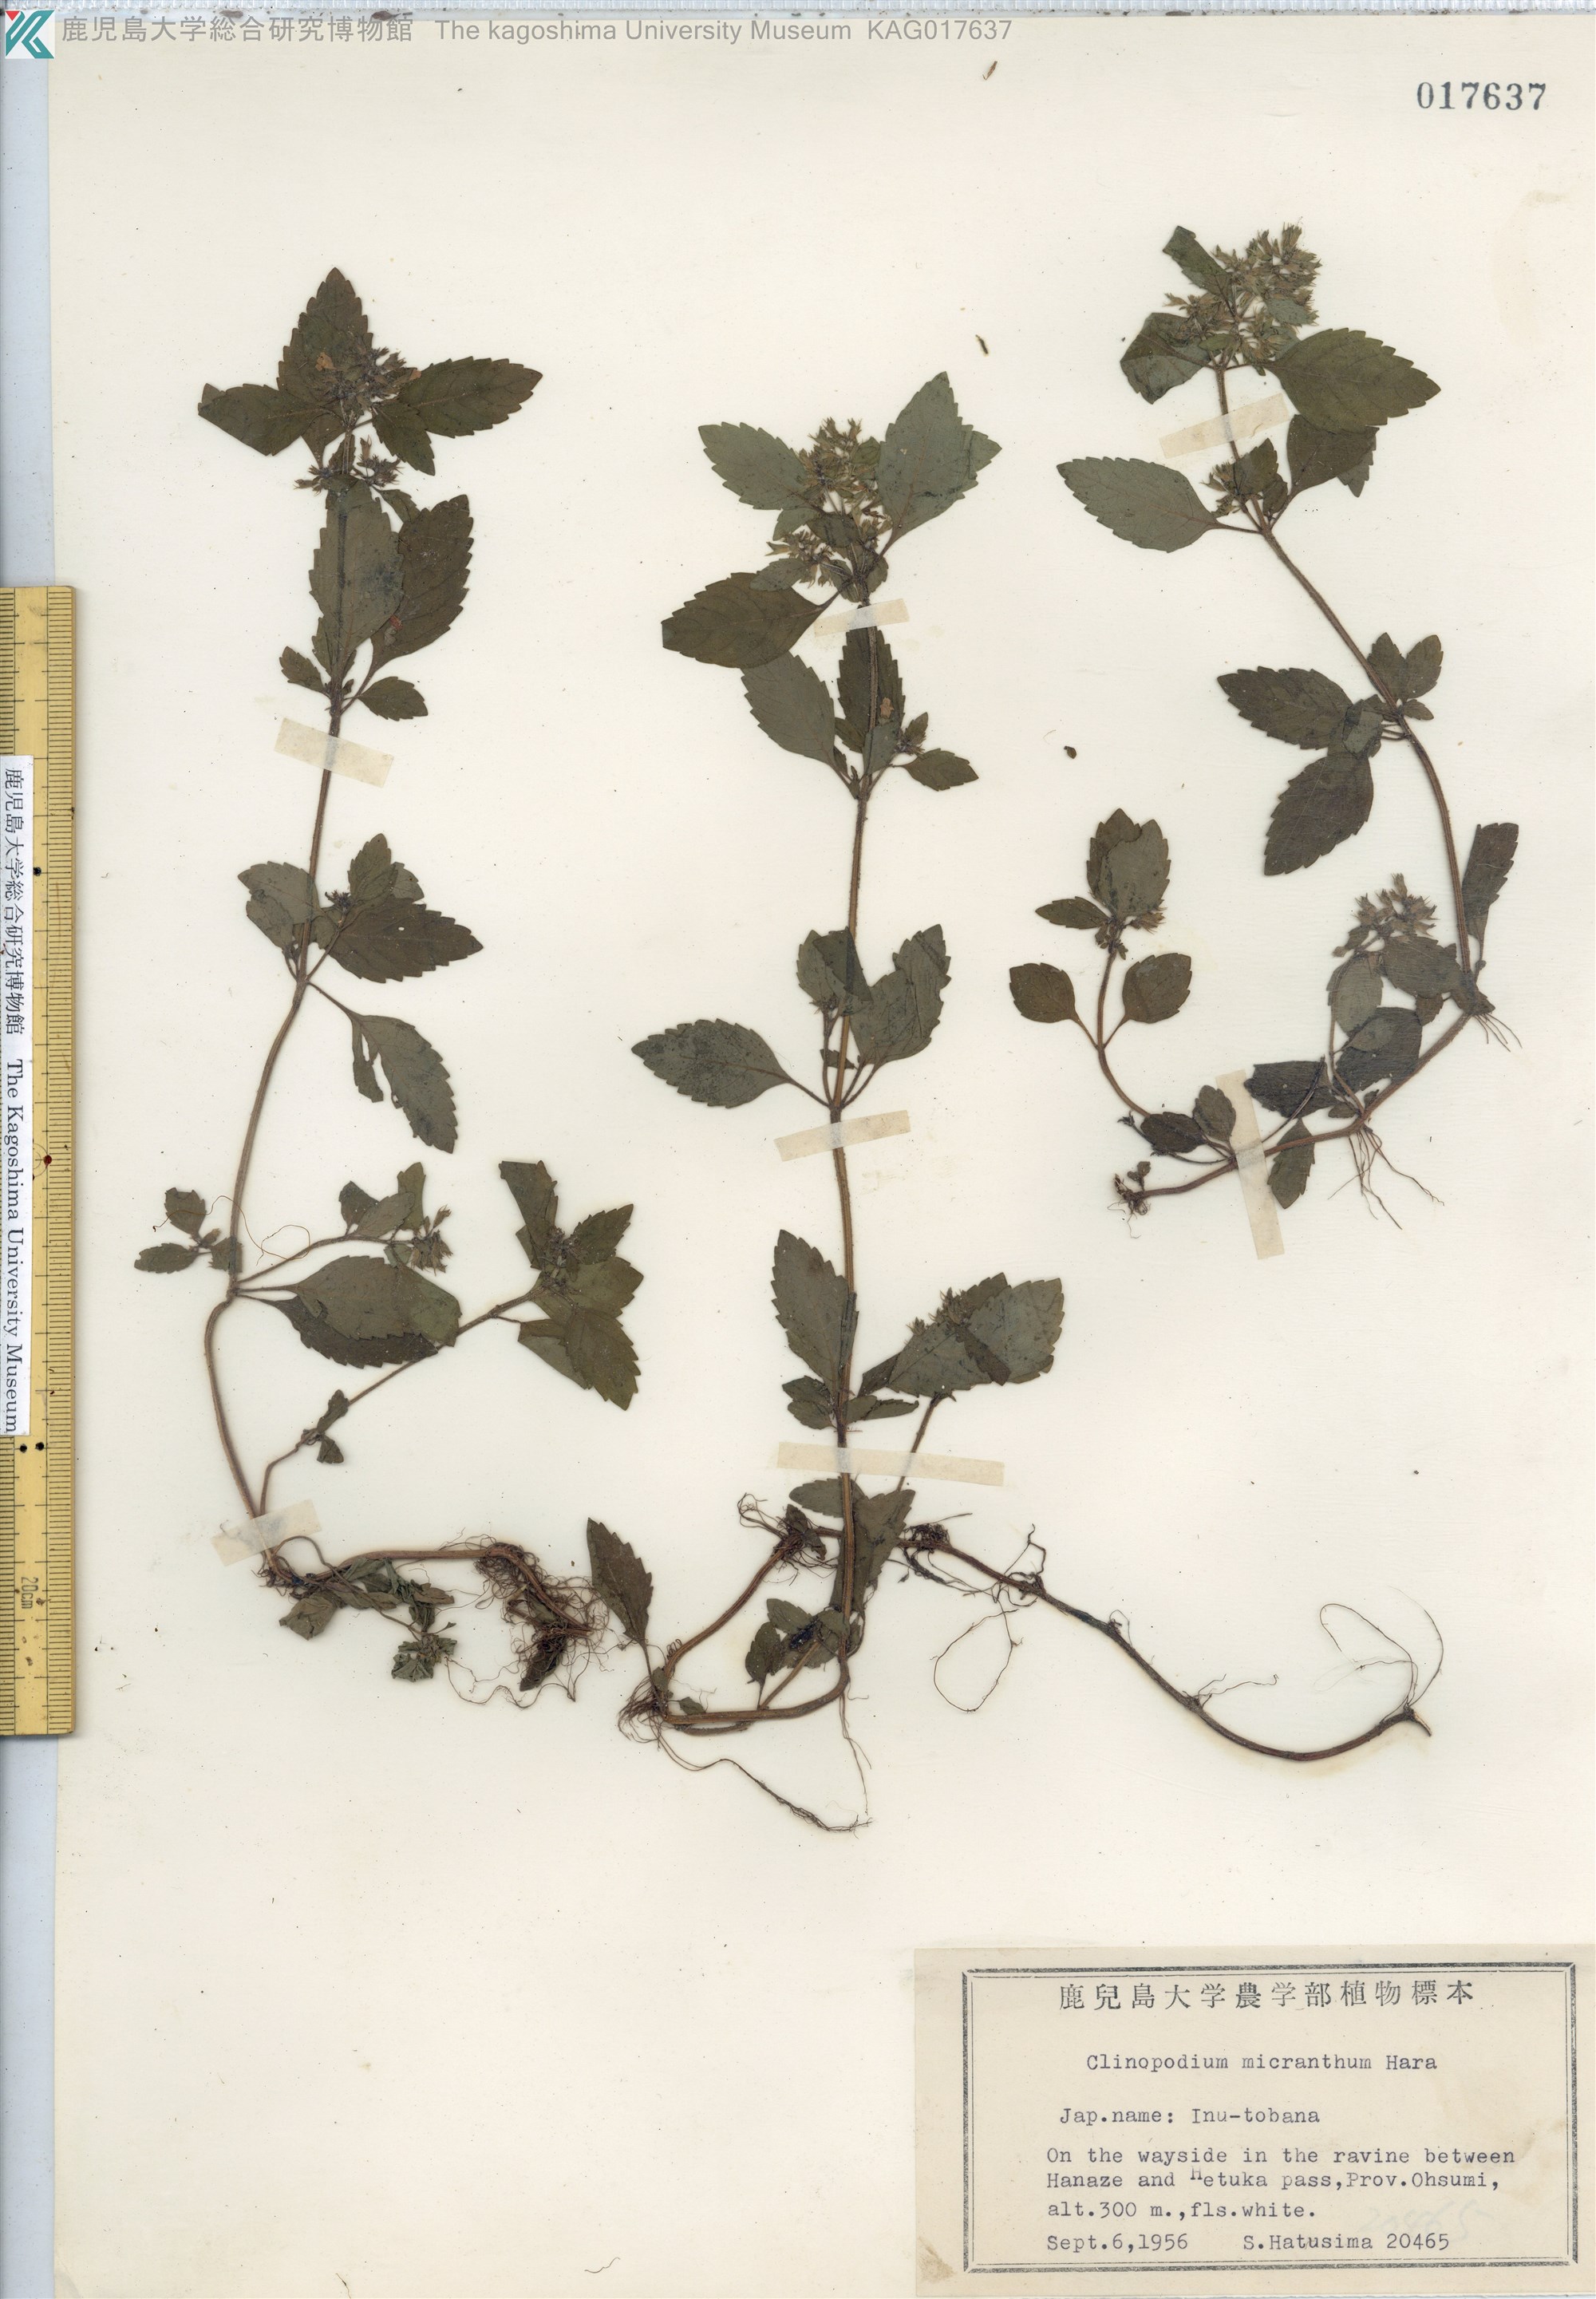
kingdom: Plantae
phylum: Tracheophyta
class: Magnoliopsida
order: Lamiales
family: Lamiaceae
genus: Clinopodium
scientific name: Clinopodium micranthum
